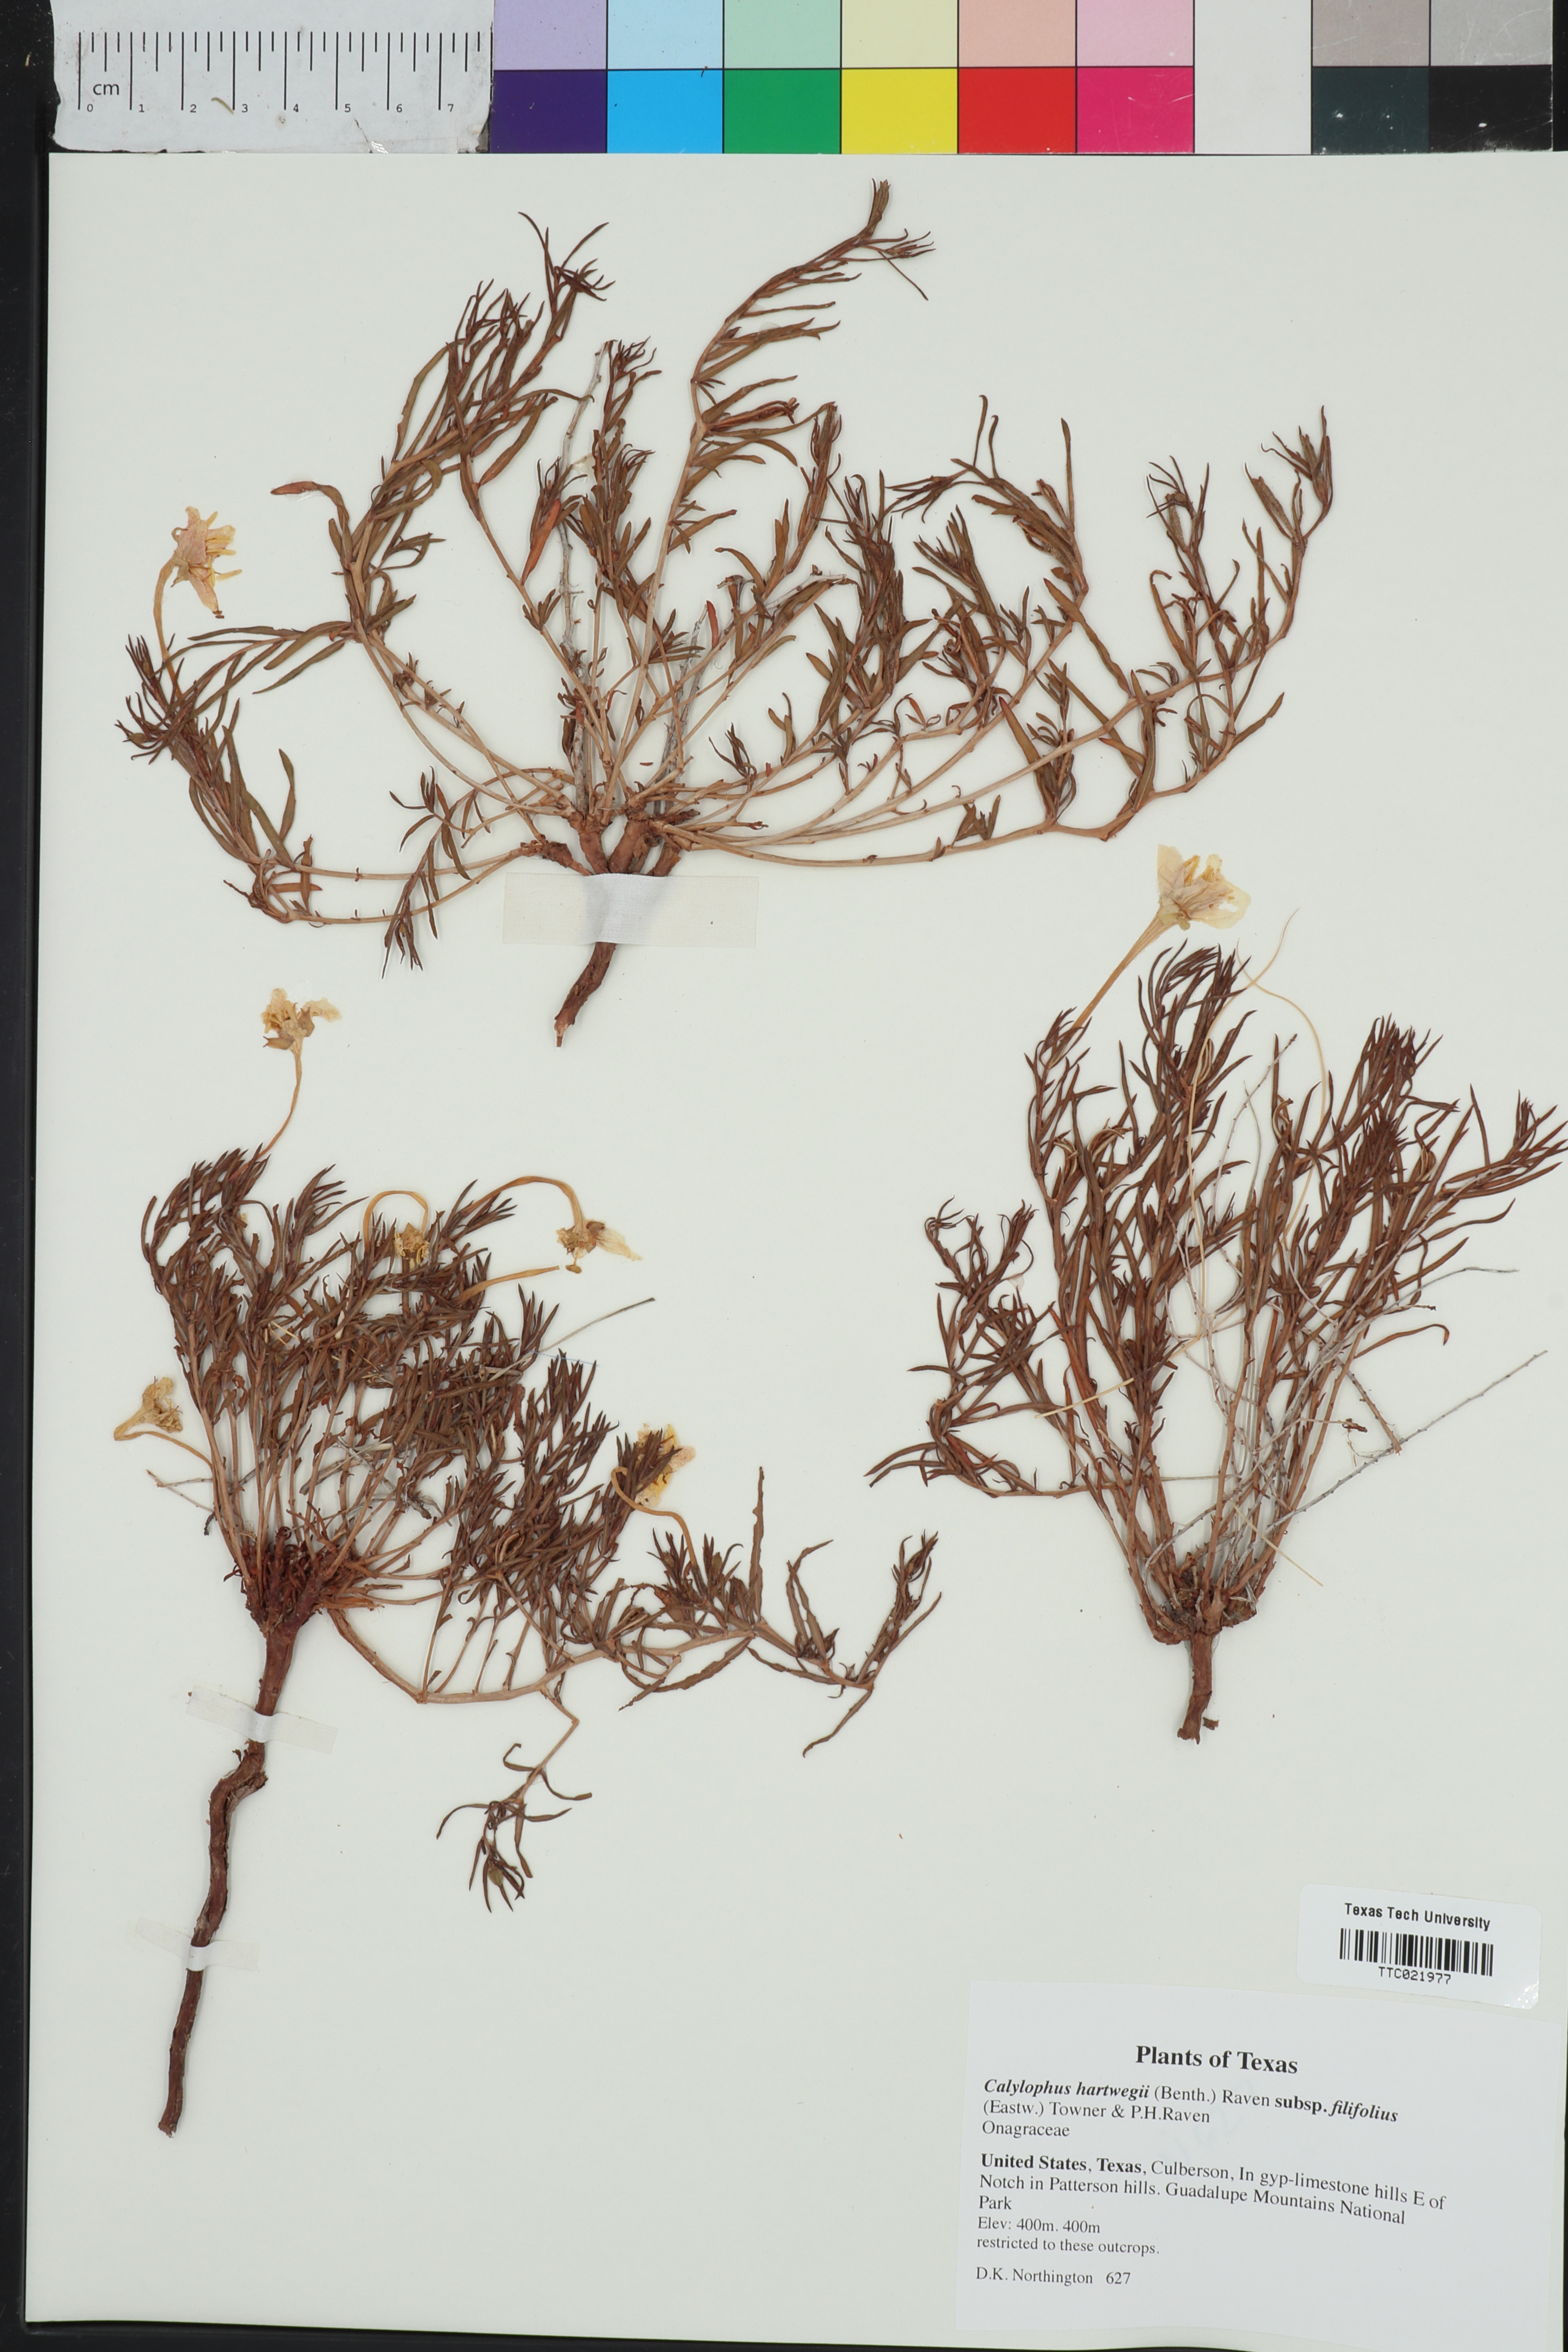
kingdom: Plantae
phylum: Tracheophyta
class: Magnoliopsida
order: Myrtales
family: Onagraceae
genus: Oenothera
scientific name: Oenothera hartwegii
